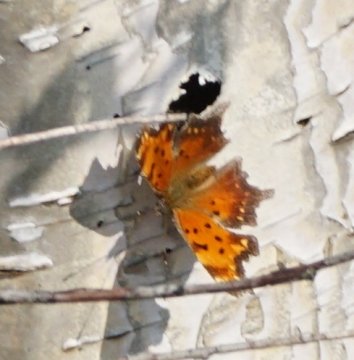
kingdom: Animalia
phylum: Arthropoda
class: Insecta
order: Lepidoptera
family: Nymphalidae
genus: Polygonia
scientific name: Polygonia progne
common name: Gray Comma
